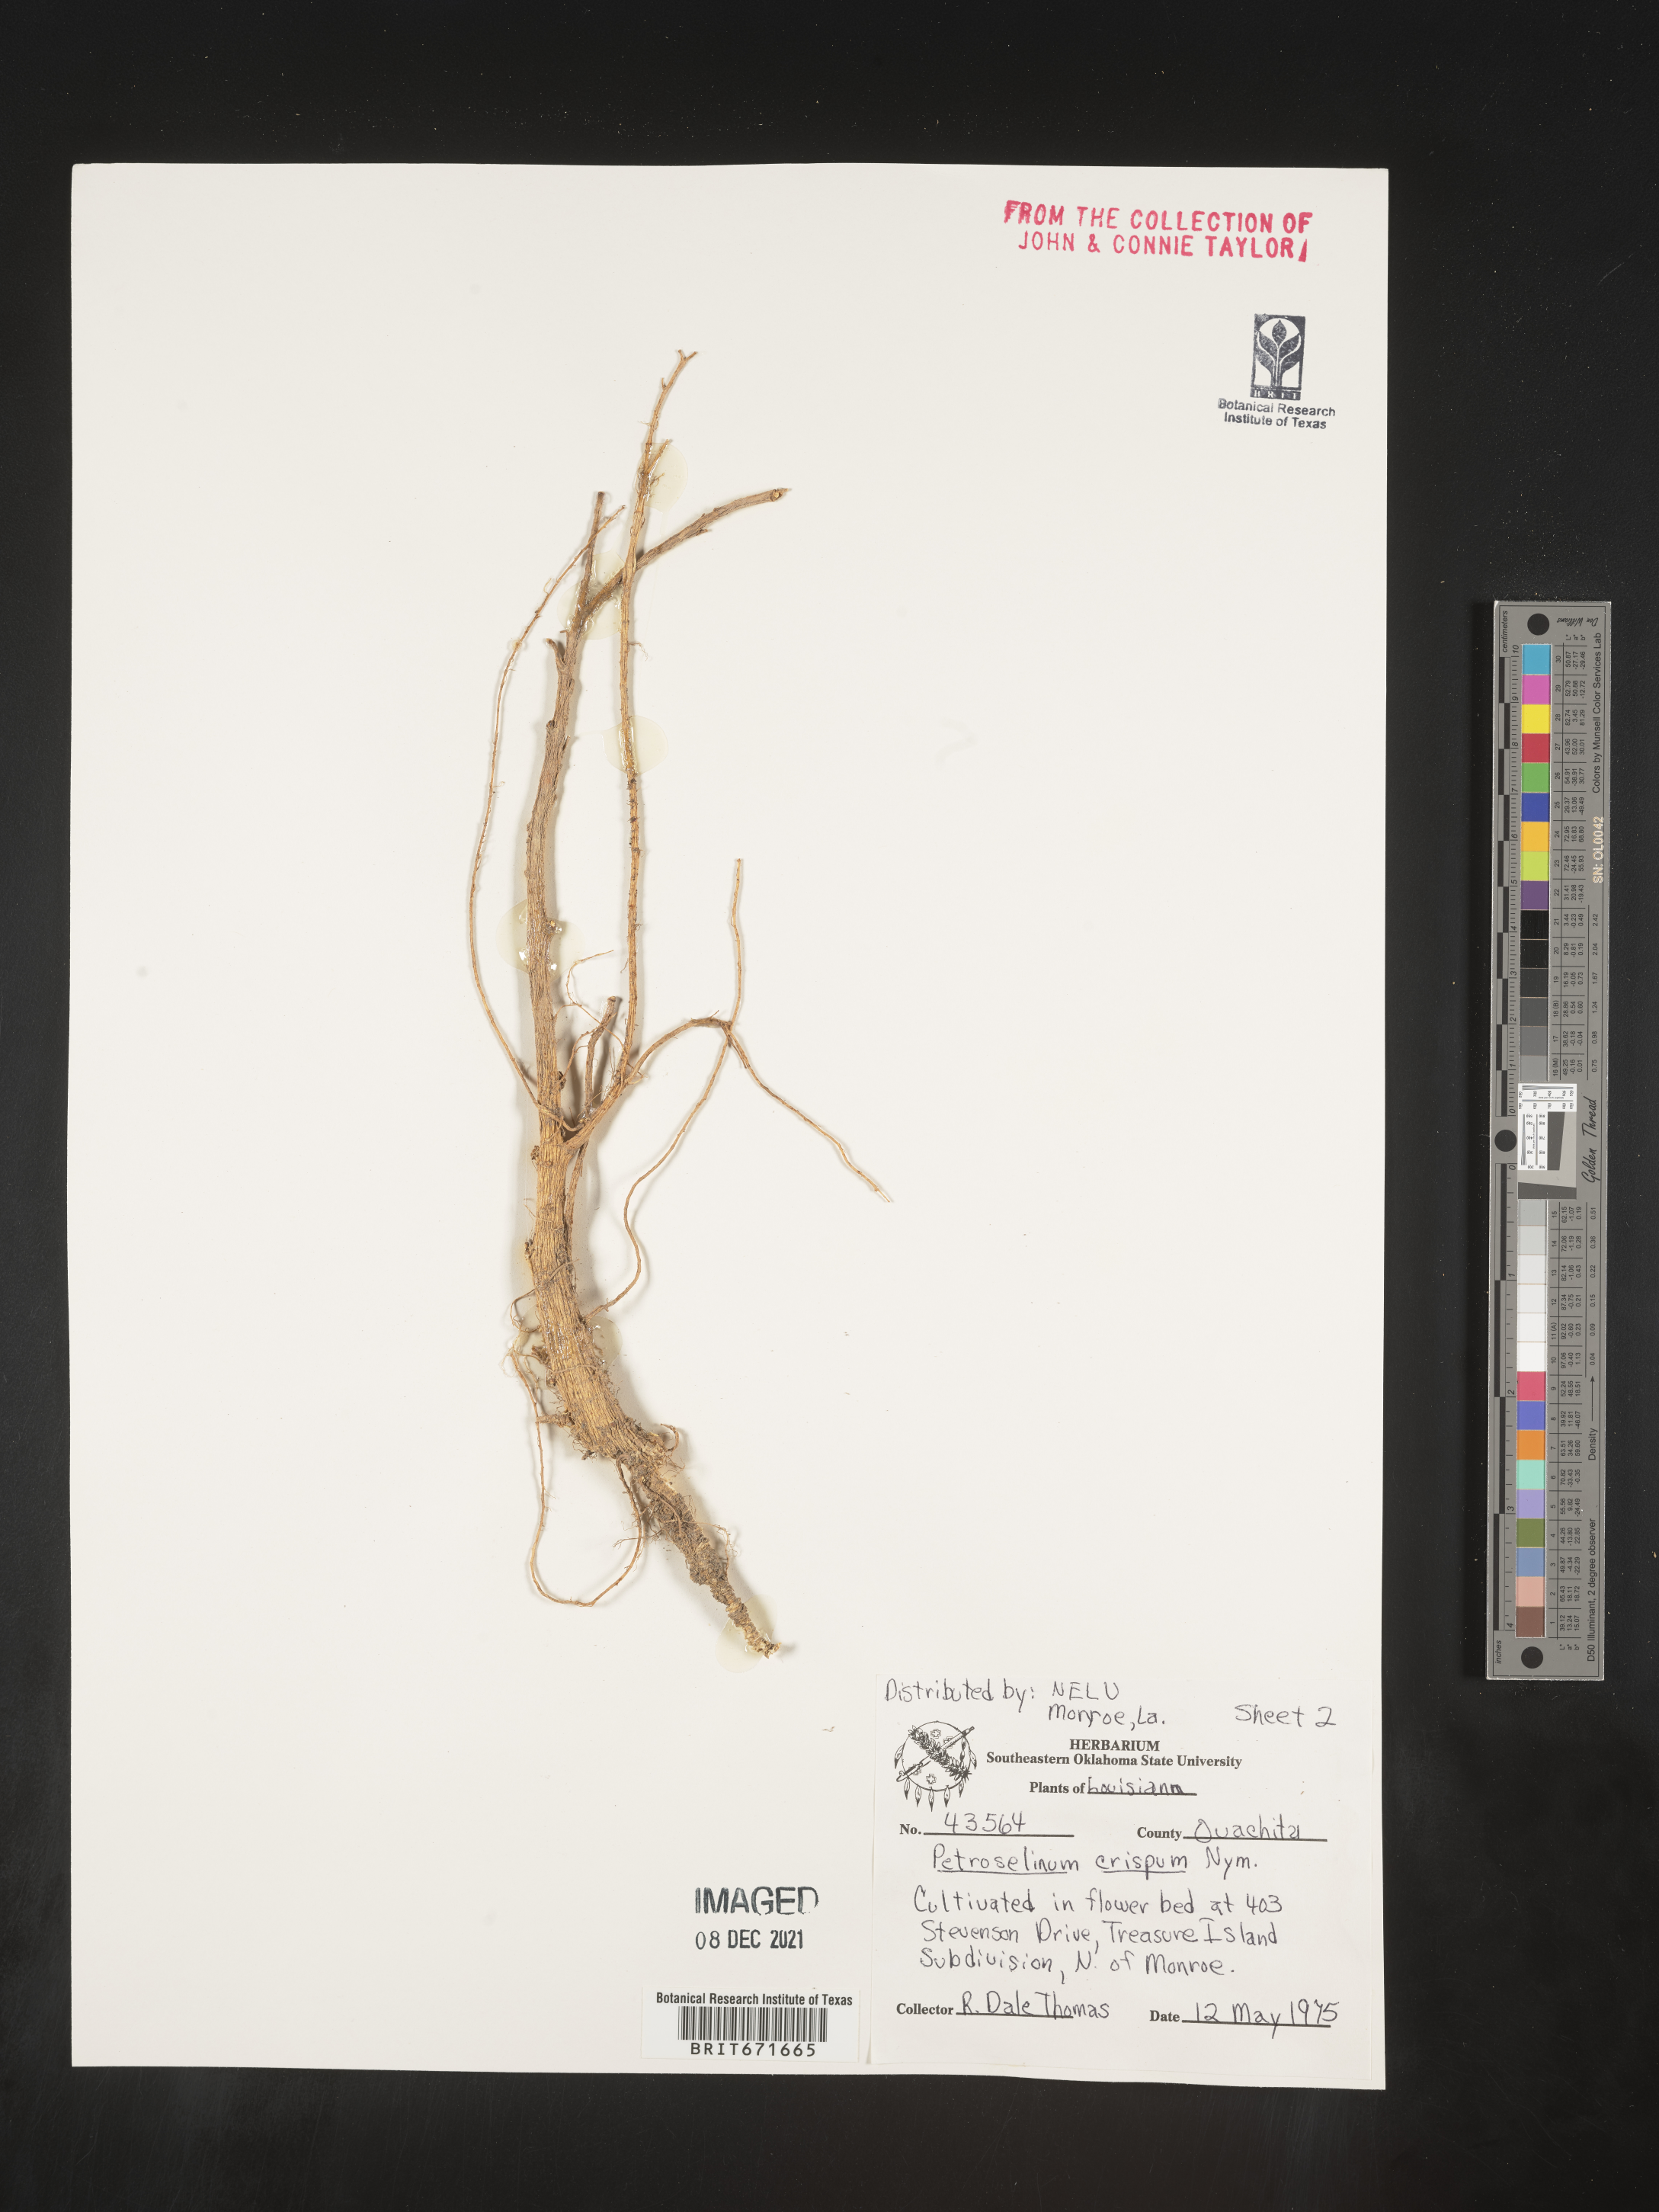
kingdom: Plantae
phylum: Tracheophyta
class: Magnoliopsida
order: Apiales
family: Apiaceae
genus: Petroselinum
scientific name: Petroselinum
